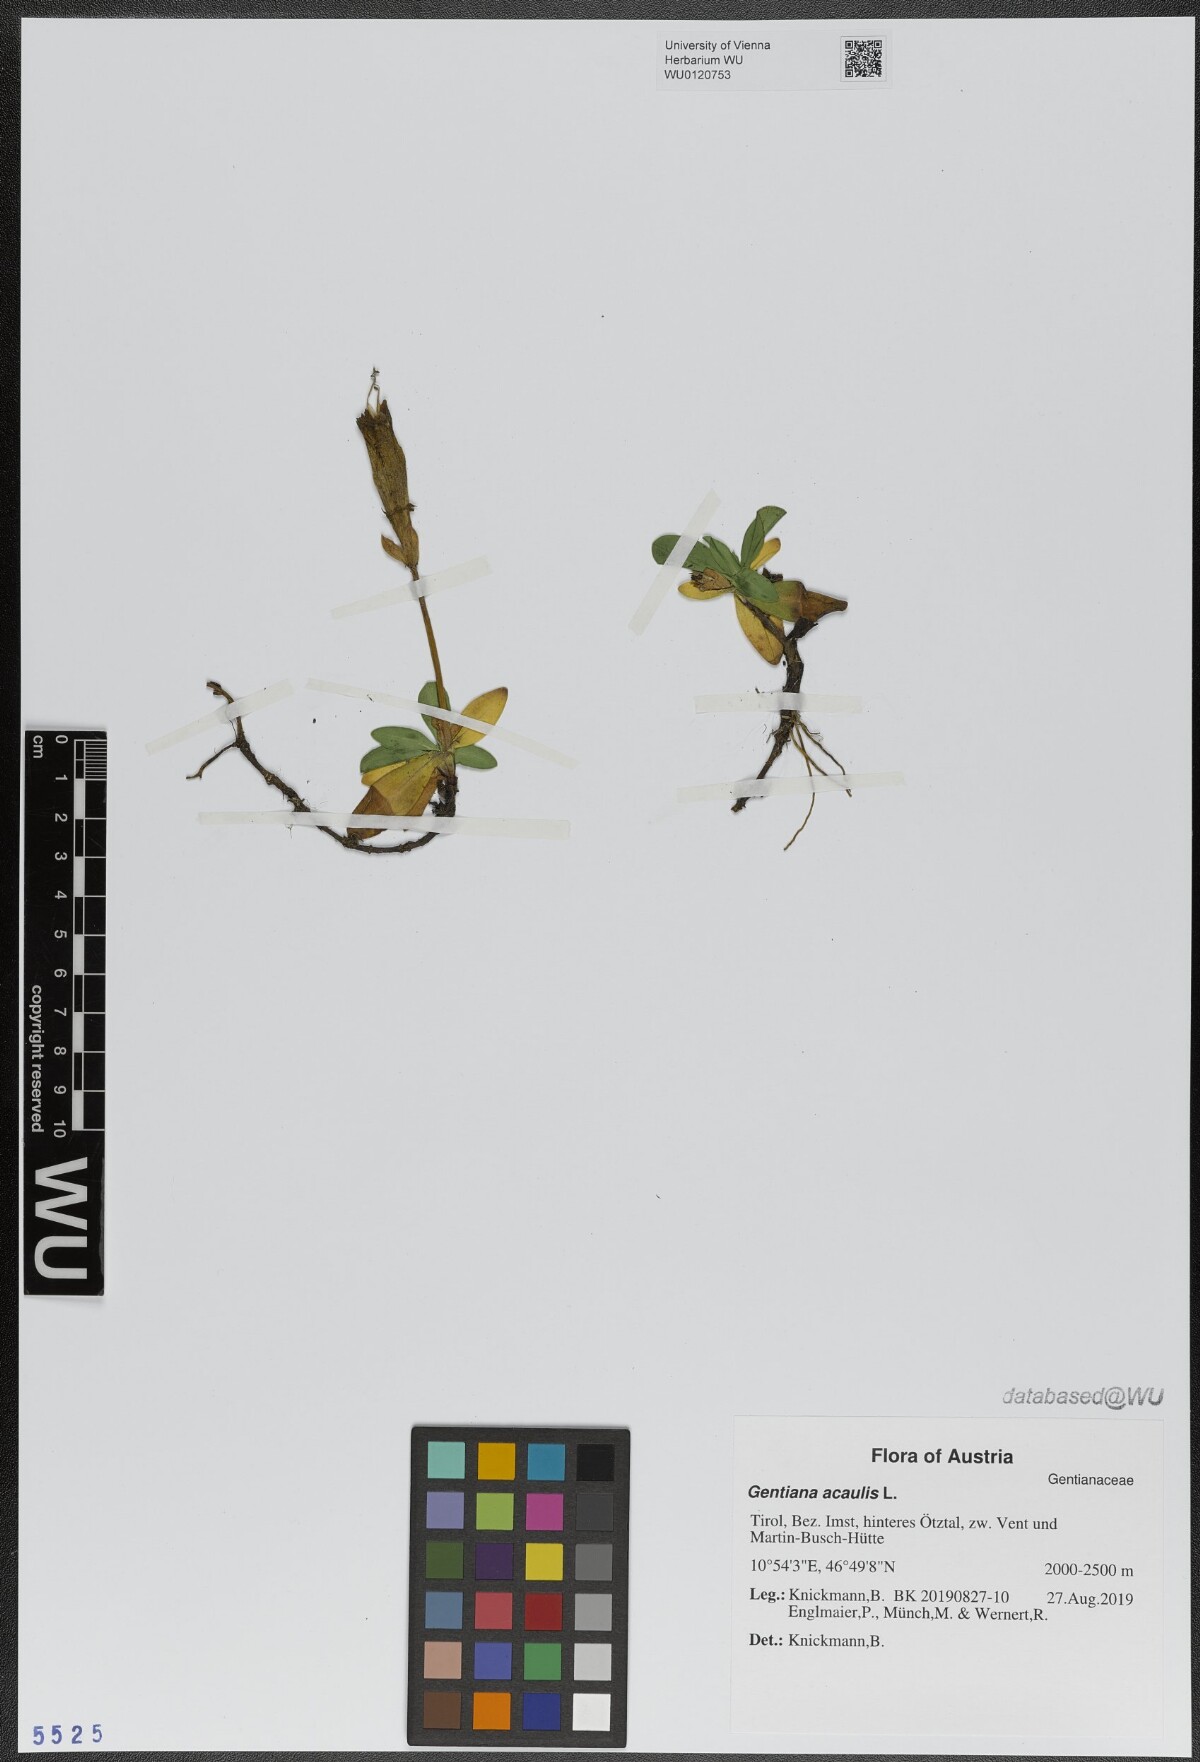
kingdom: Plantae
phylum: Tracheophyta
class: Magnoliopsida
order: Gentianales
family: Gentianaceae
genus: Gentiana
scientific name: Gentiana acaulis
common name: Trumpet gentian
